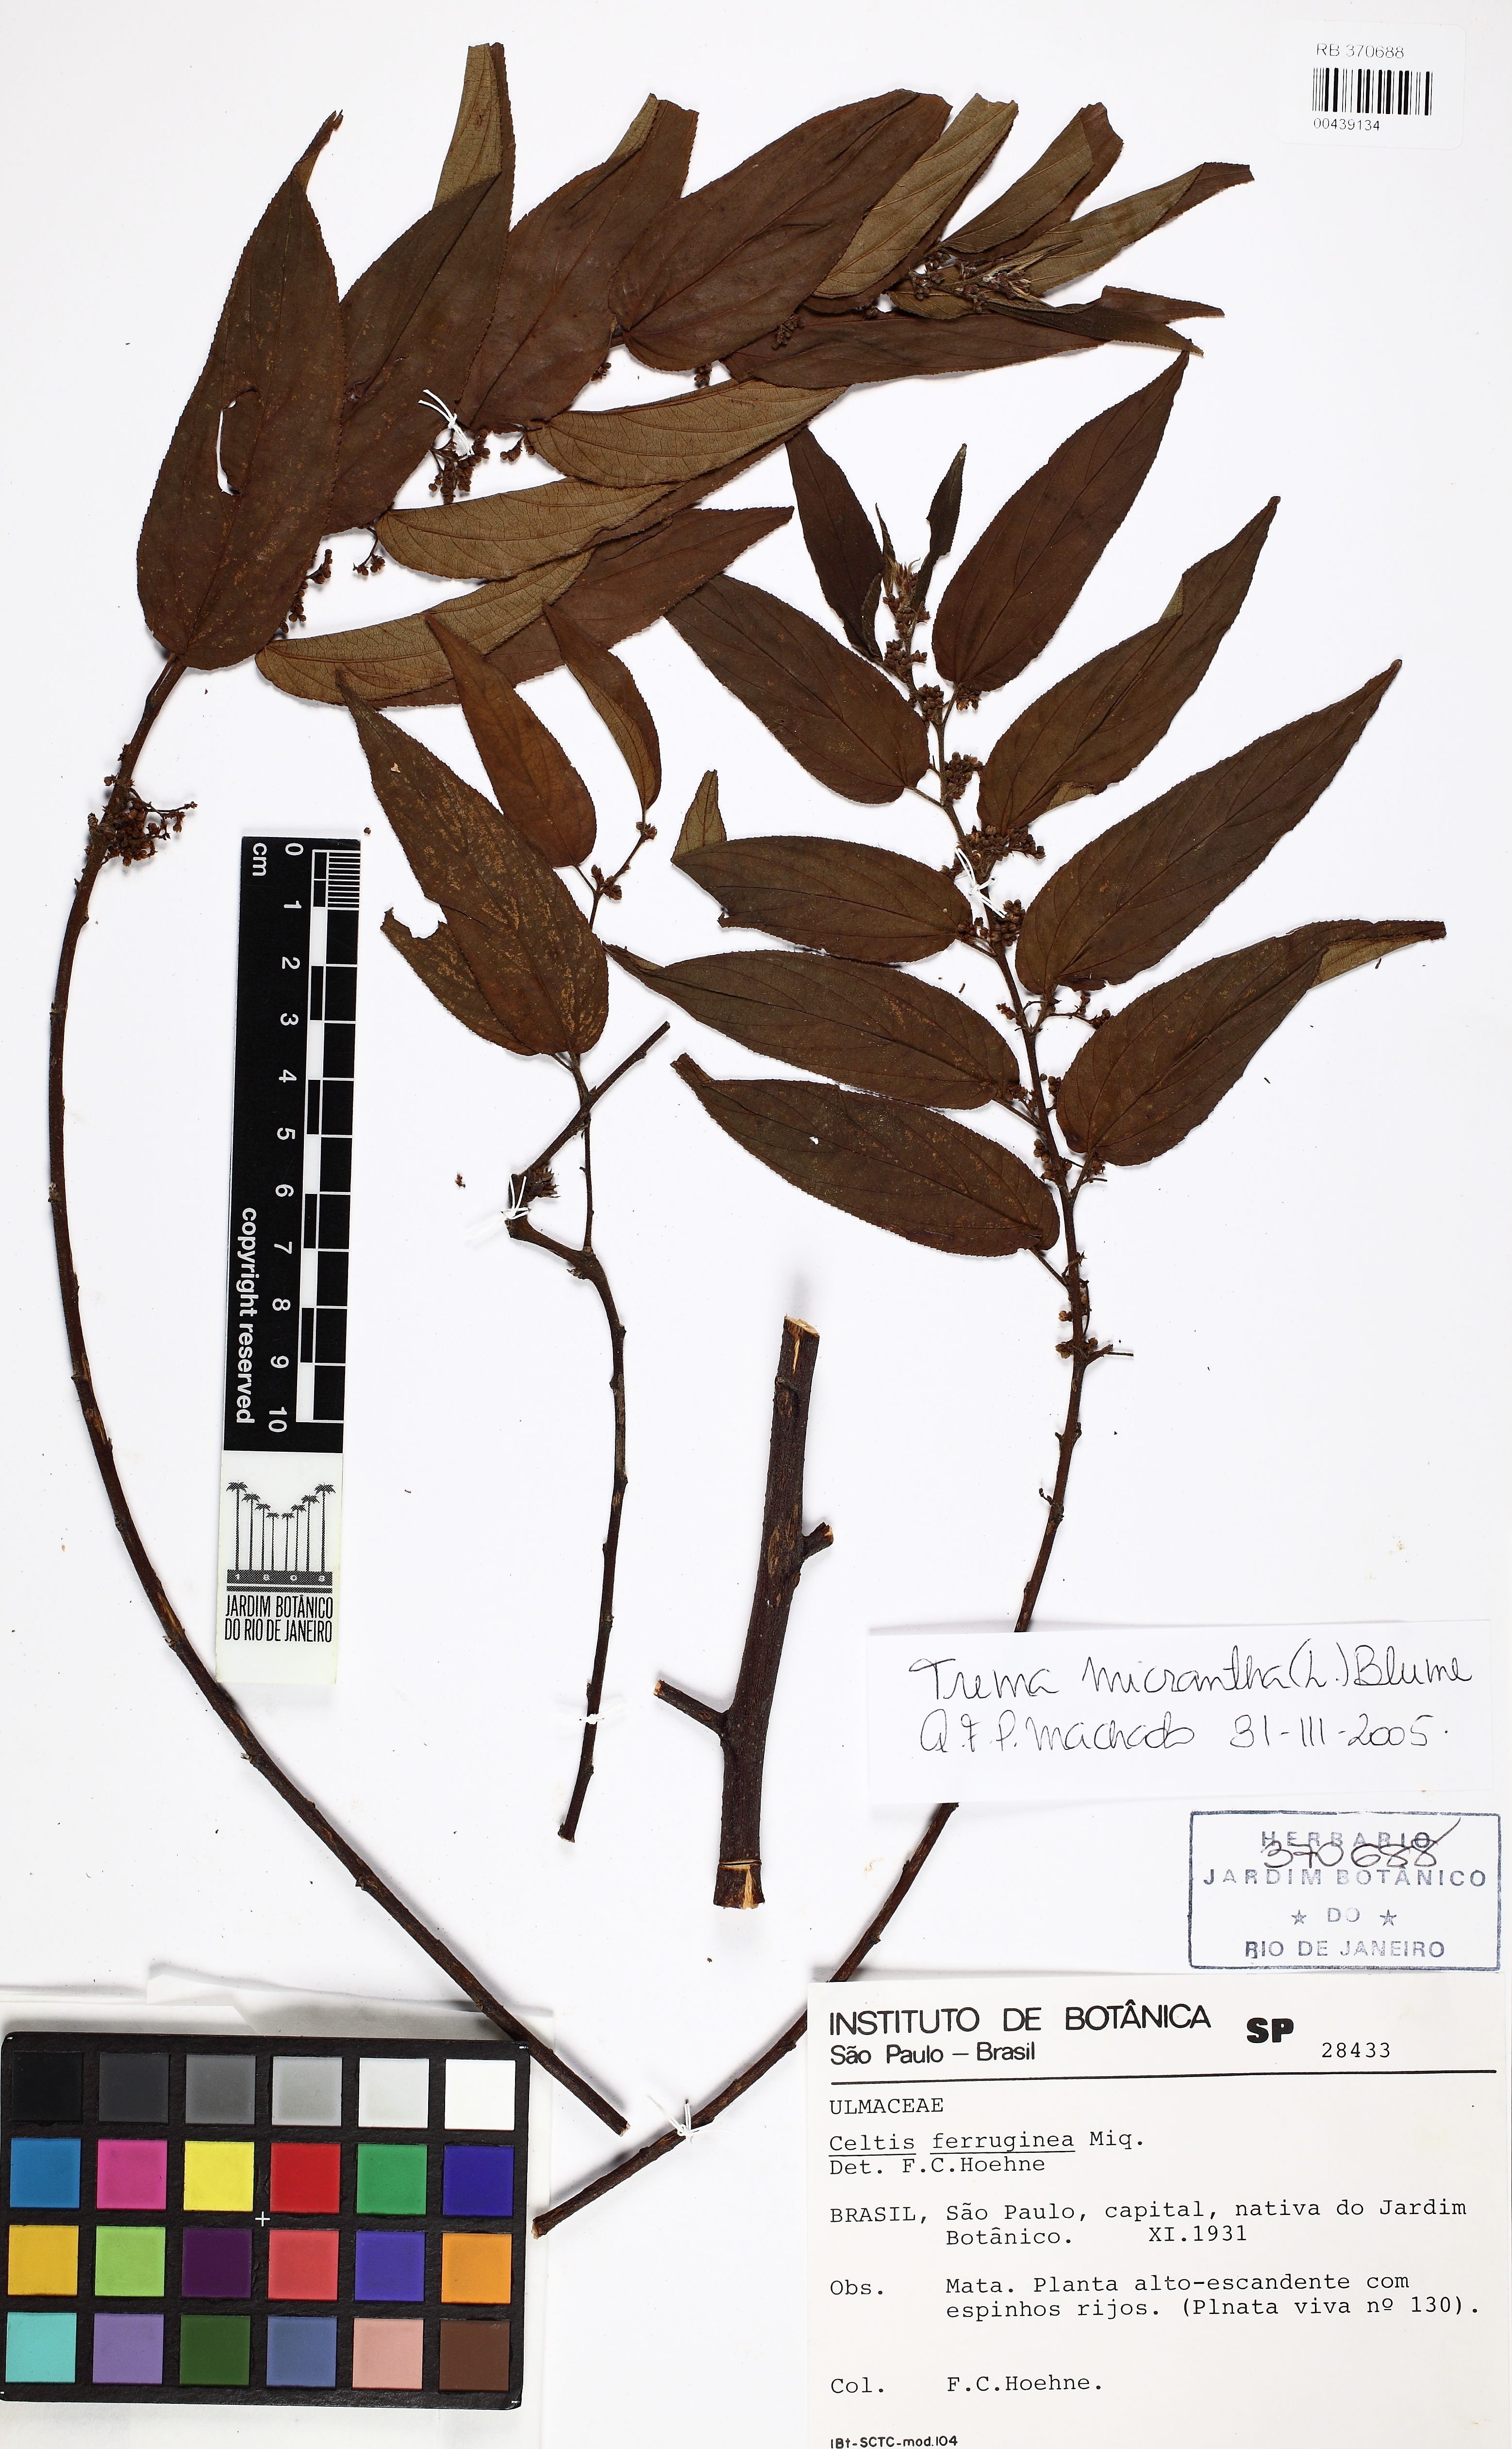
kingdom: Plantae
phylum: Tracheophyta
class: Magnoliopsida
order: Rosales
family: Cannabaceae
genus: Trema
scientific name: Trema micranthum
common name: Jamaican nettletree
